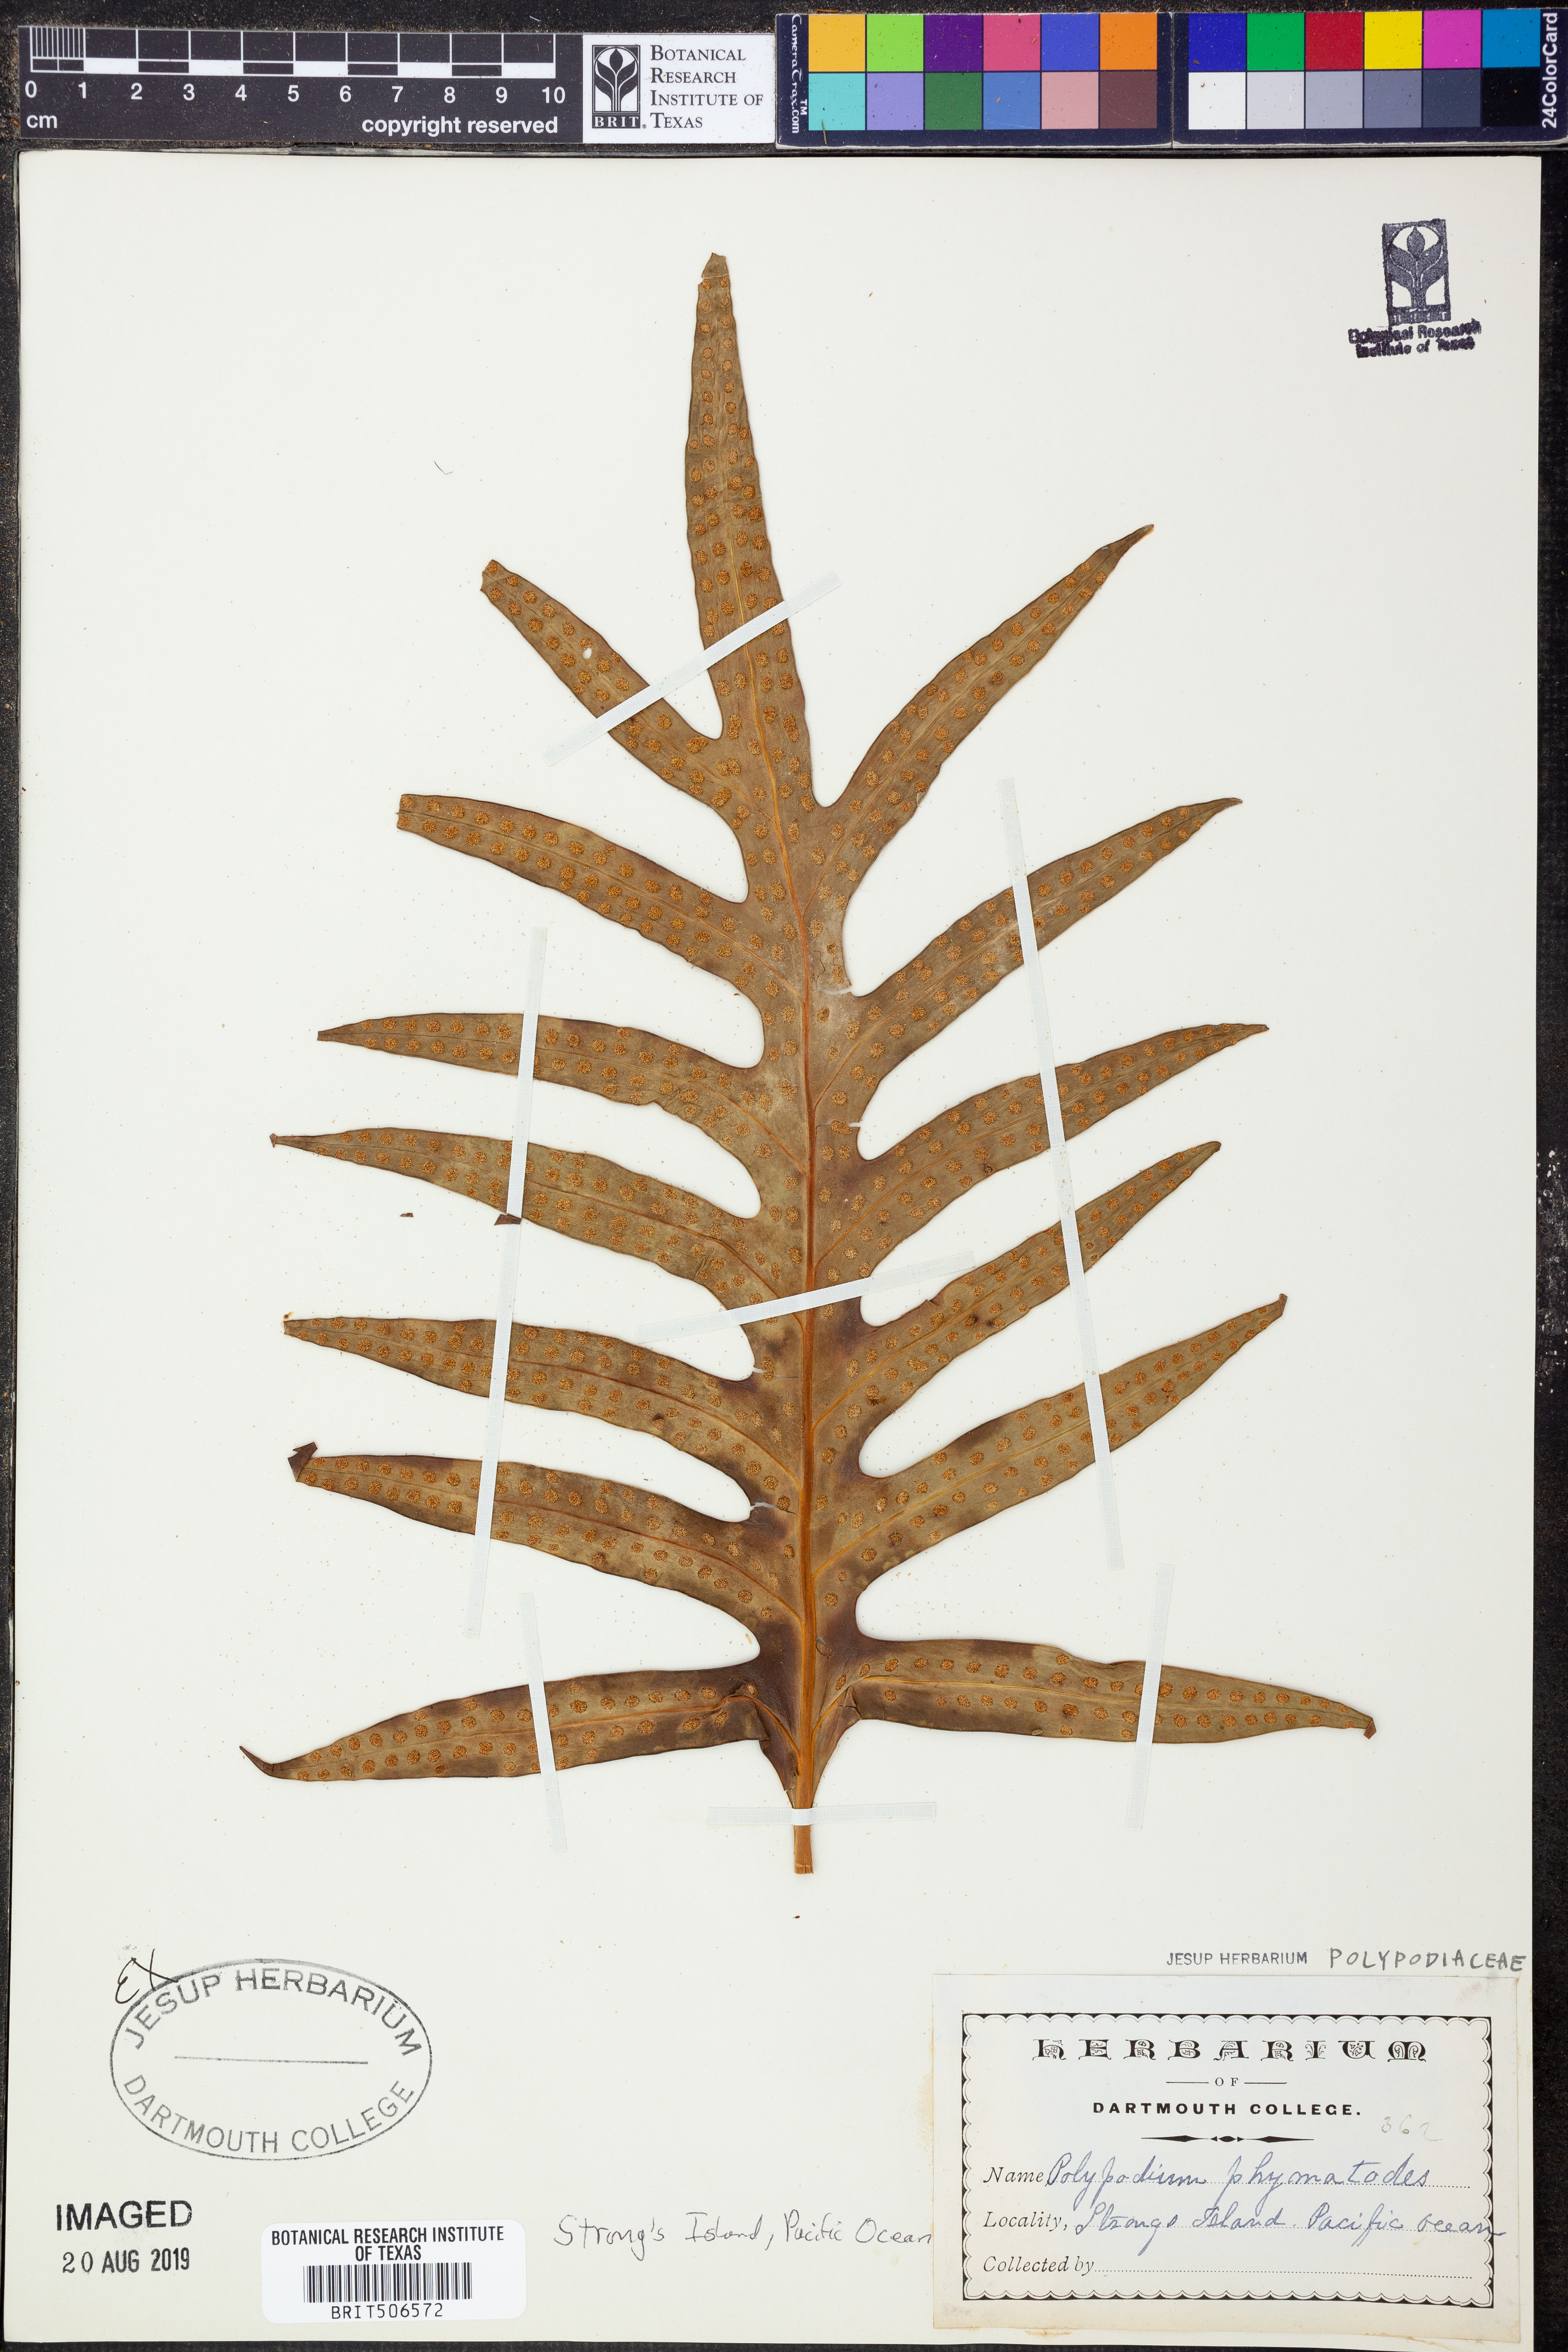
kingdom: Plantae
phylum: Tracheophyta
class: Polypodiopsida
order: Polypodiales
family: Polypodiaceae
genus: Microsorum
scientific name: Microsorum scolopendria
